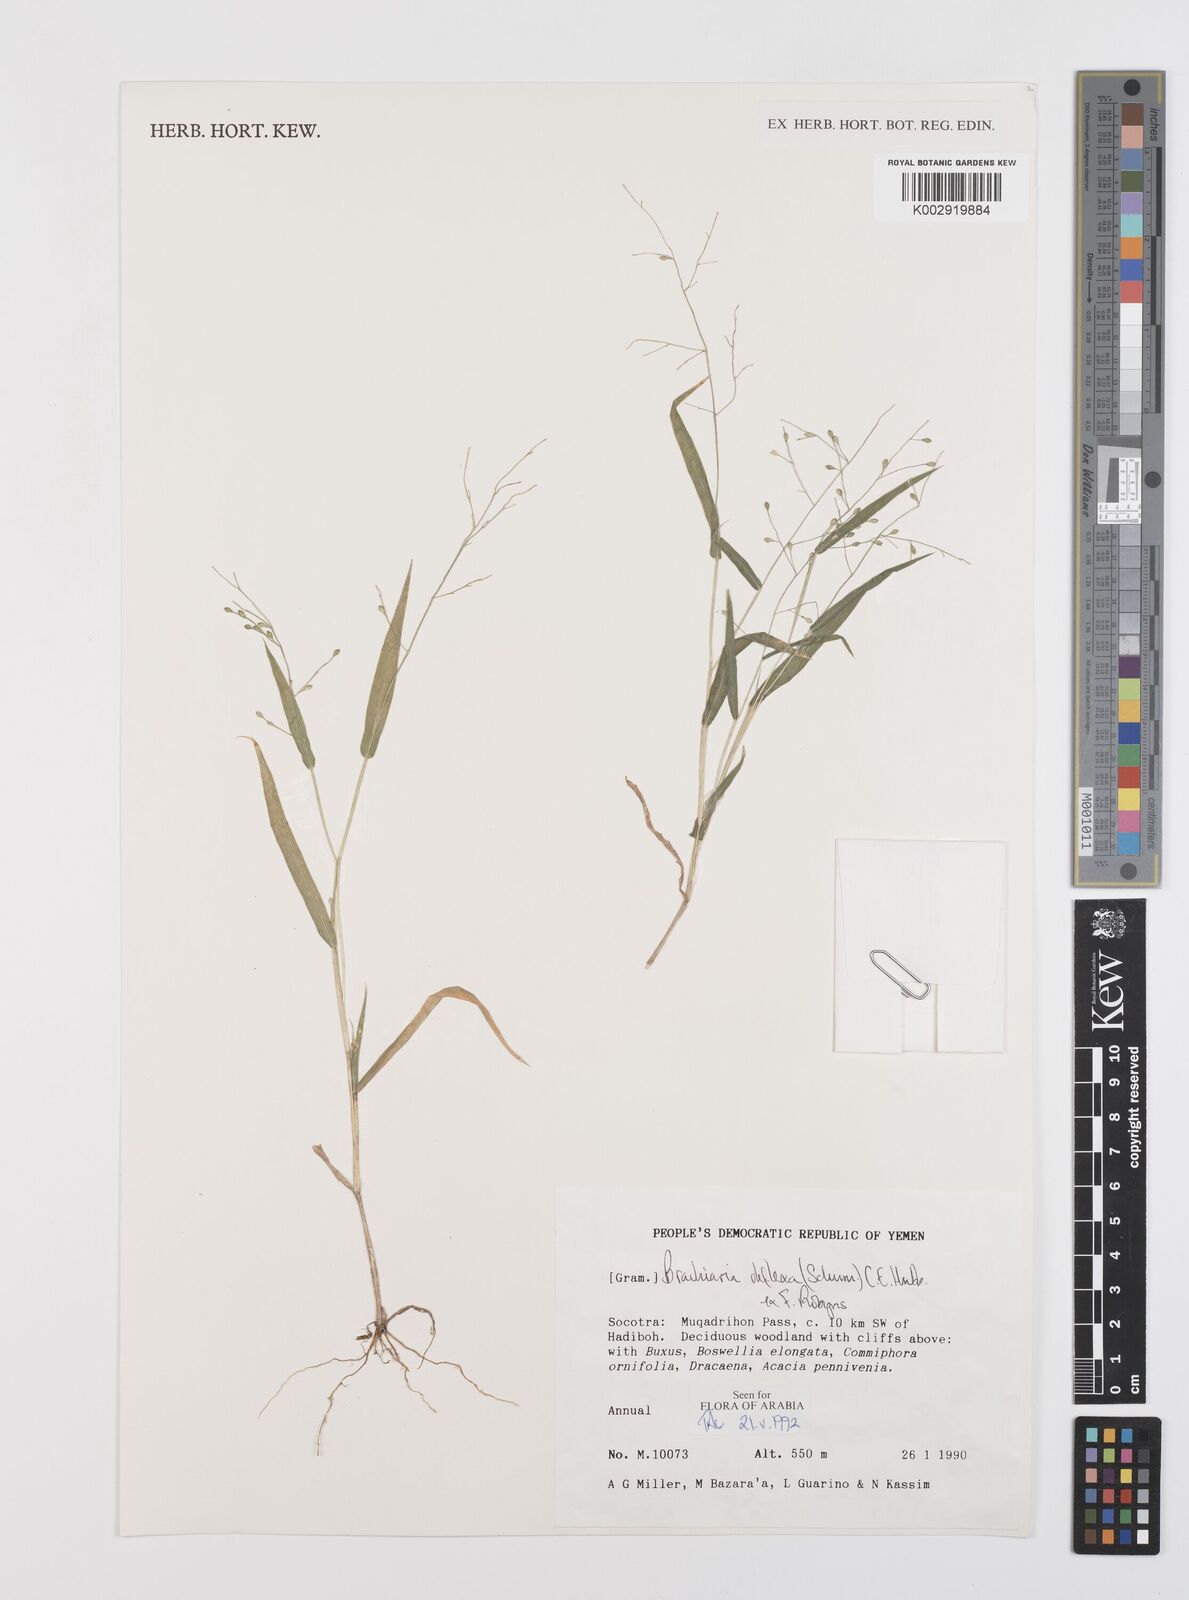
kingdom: Plantae
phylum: Tracheophyta
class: Liliopsida
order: Poales
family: Poaceae
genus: Urochloa
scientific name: Urochloa deflexa
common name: Guinea millet
